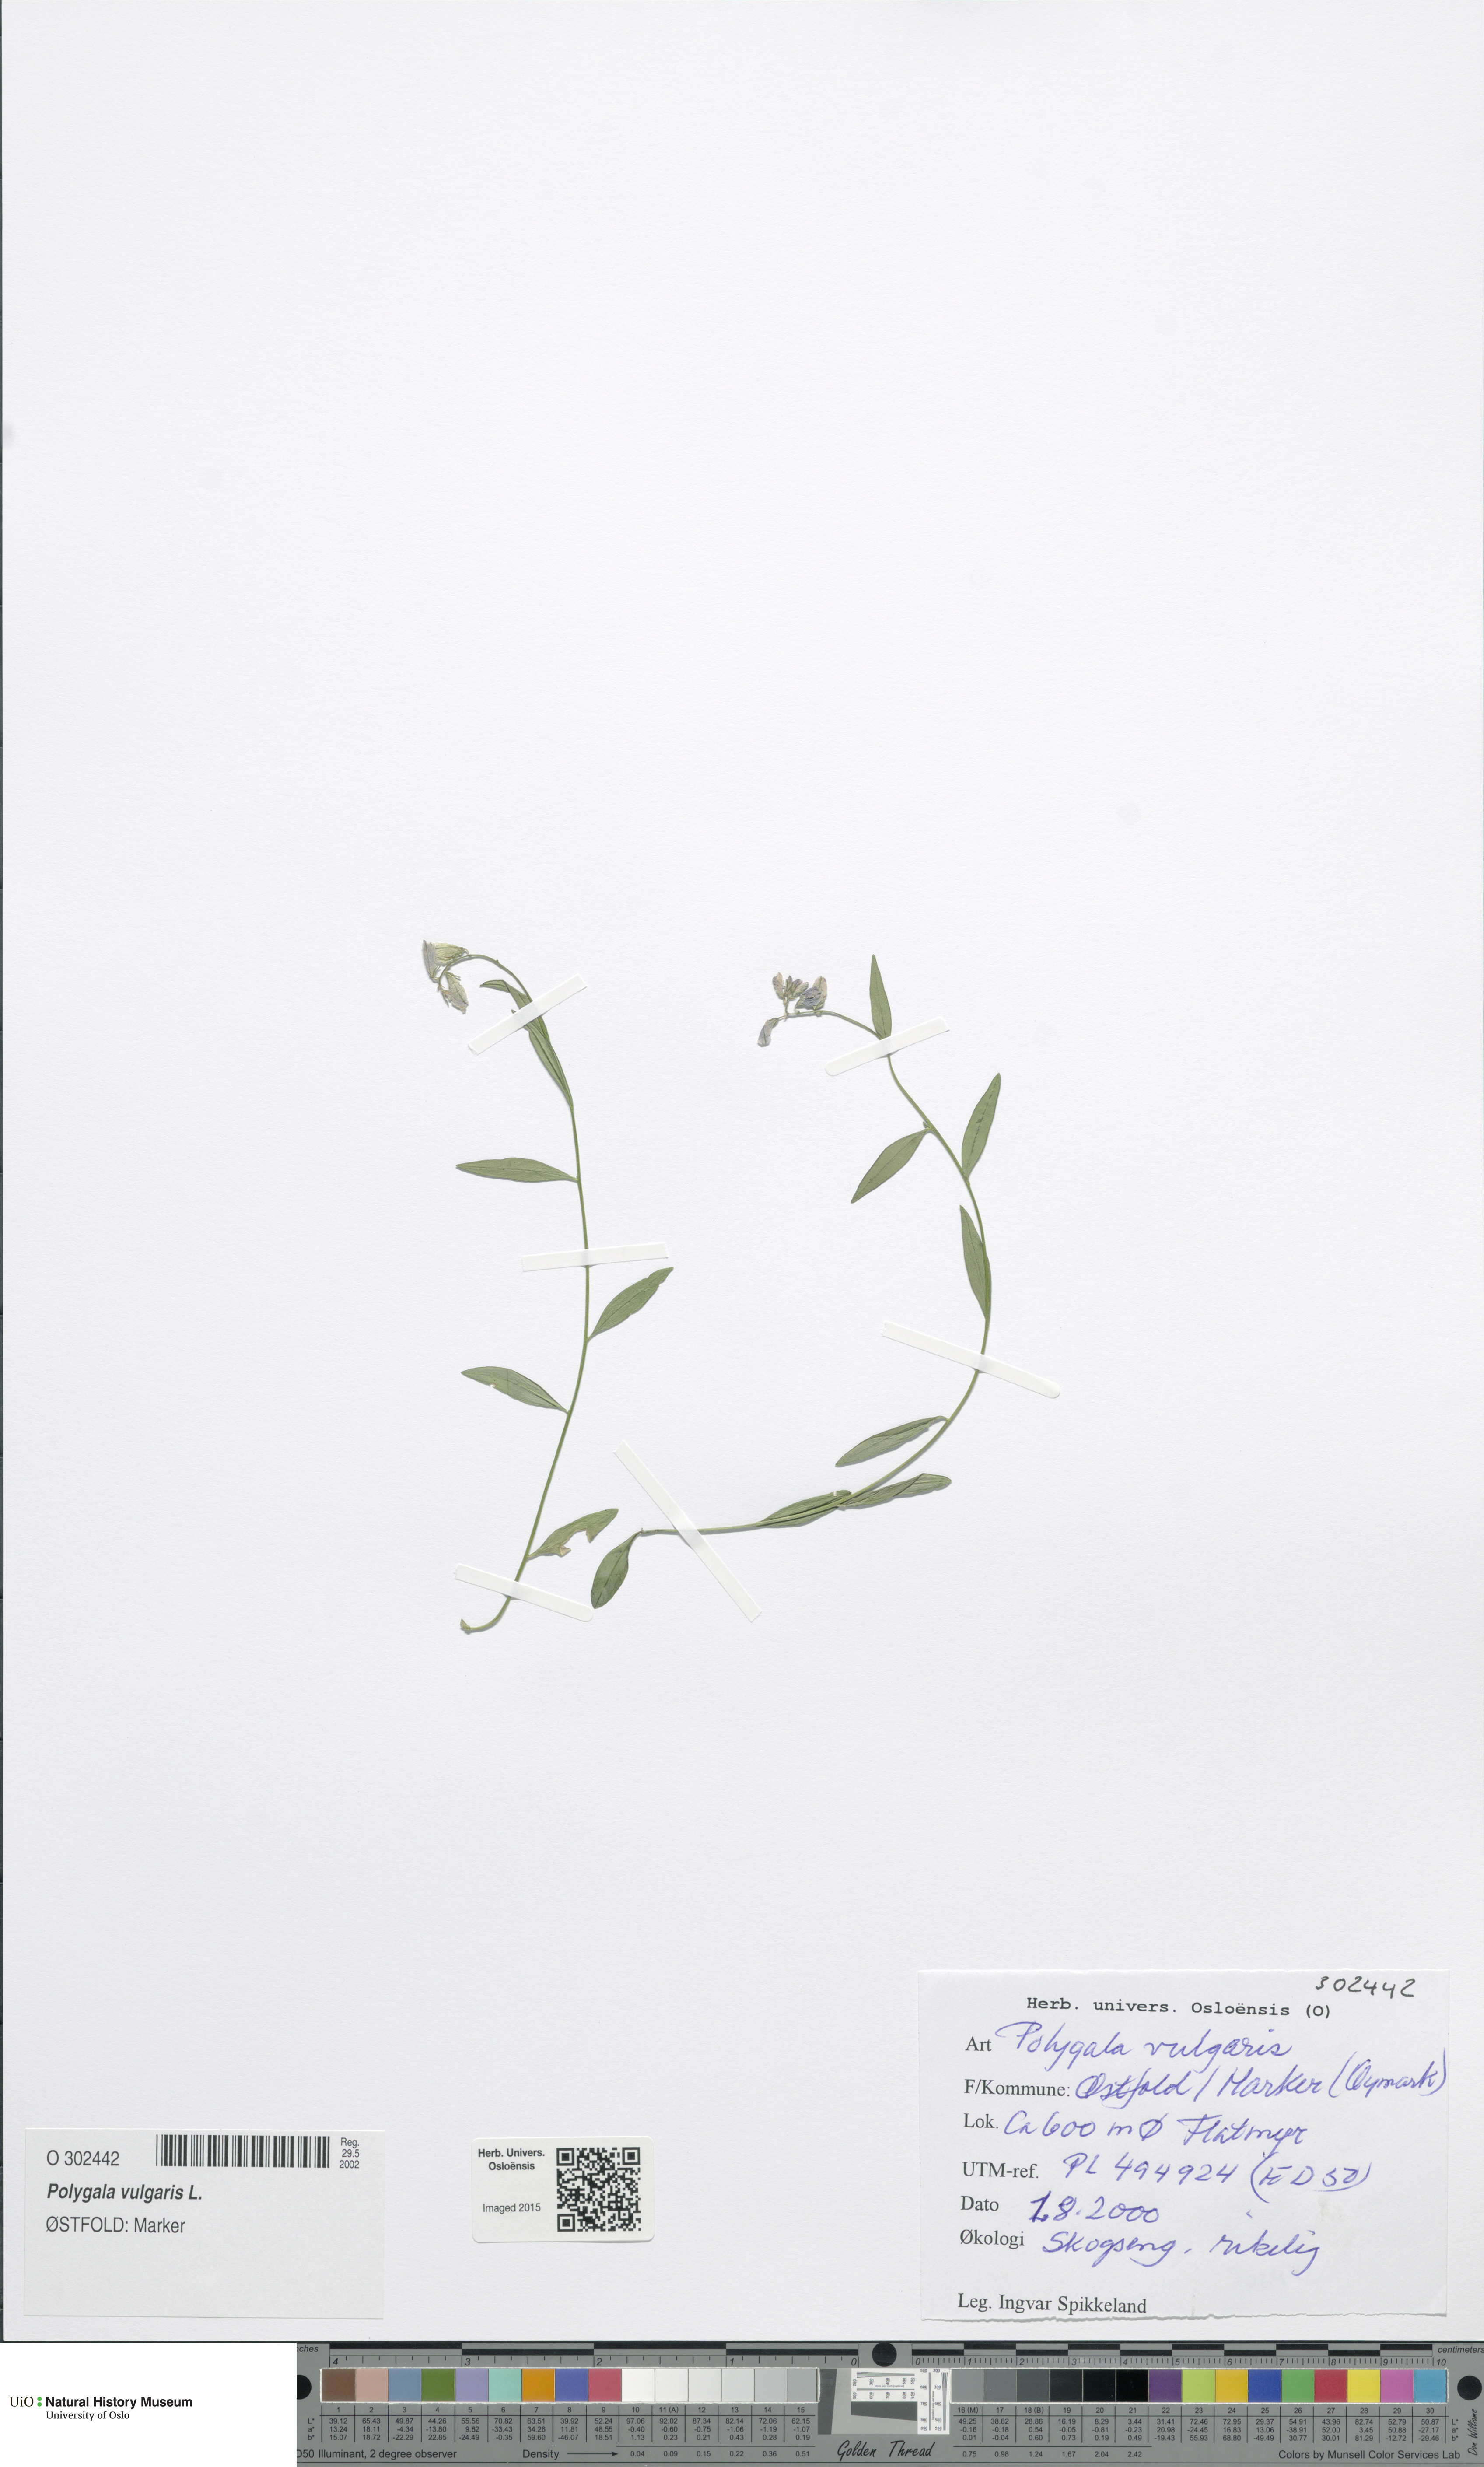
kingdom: Plantae
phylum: Tracheophyta
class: Magnoliopsida
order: Fabales
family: Polygalaceae
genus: Polygala
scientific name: Polygala vulgaris
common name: Common milkwort
